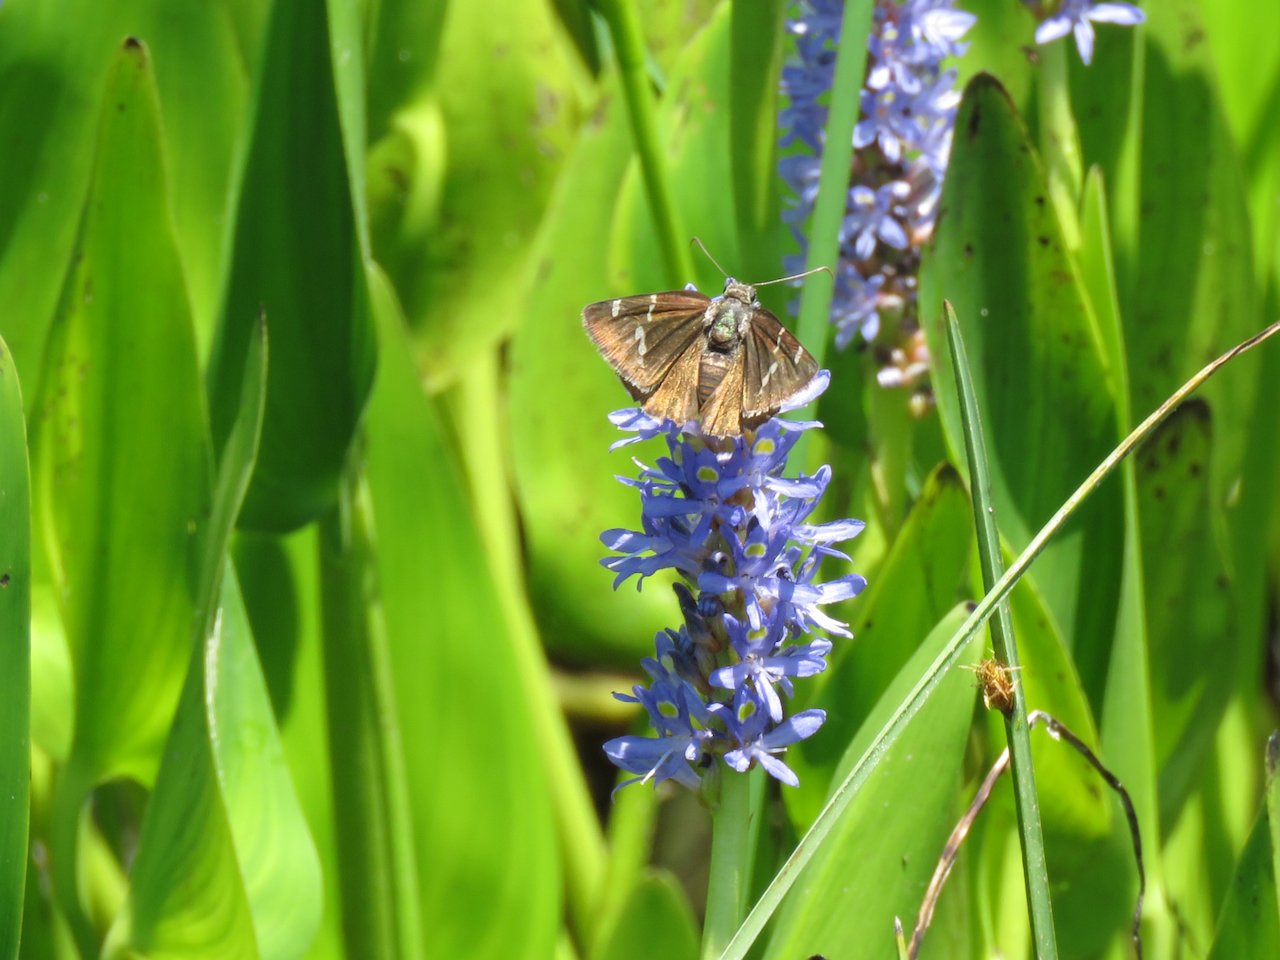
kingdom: Animalia
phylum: Arthropoda
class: Insecta
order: Lepidoptera
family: Hesperiidae
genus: Autochton
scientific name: Autochton
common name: Southern Cloudywing
